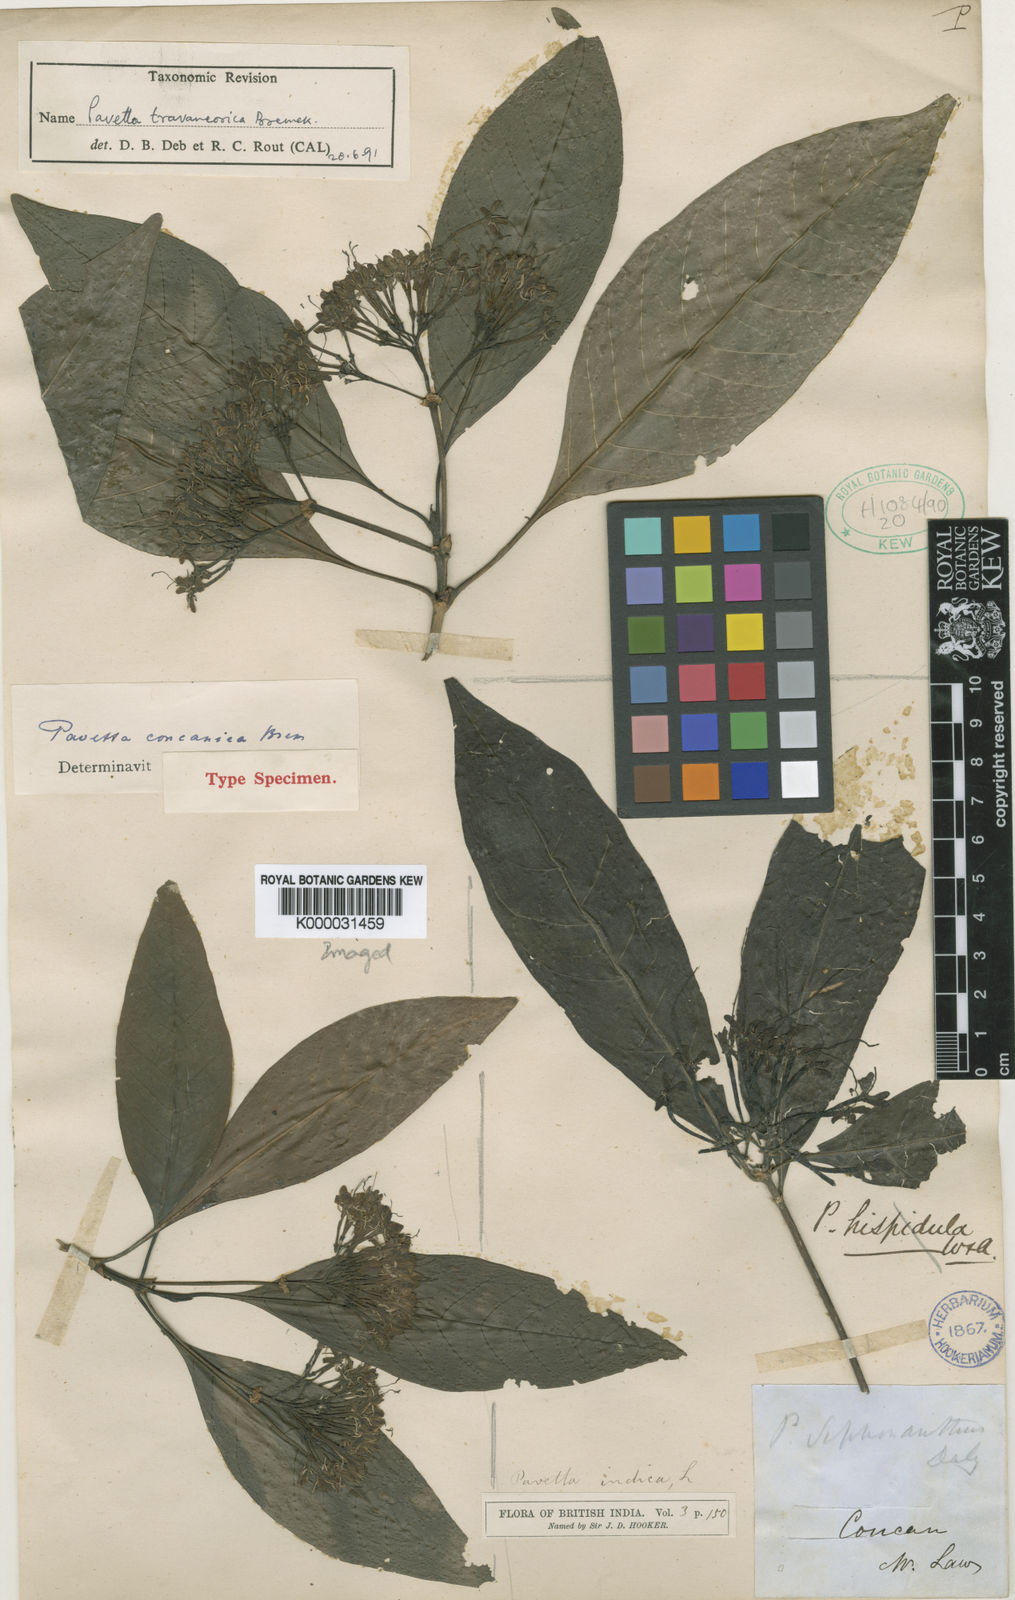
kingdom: Plantae
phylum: Tracheophyta
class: Magnoliopsida
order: Gentianales
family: Rubiaceae
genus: Pavetta
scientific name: Pavetta travancorica
